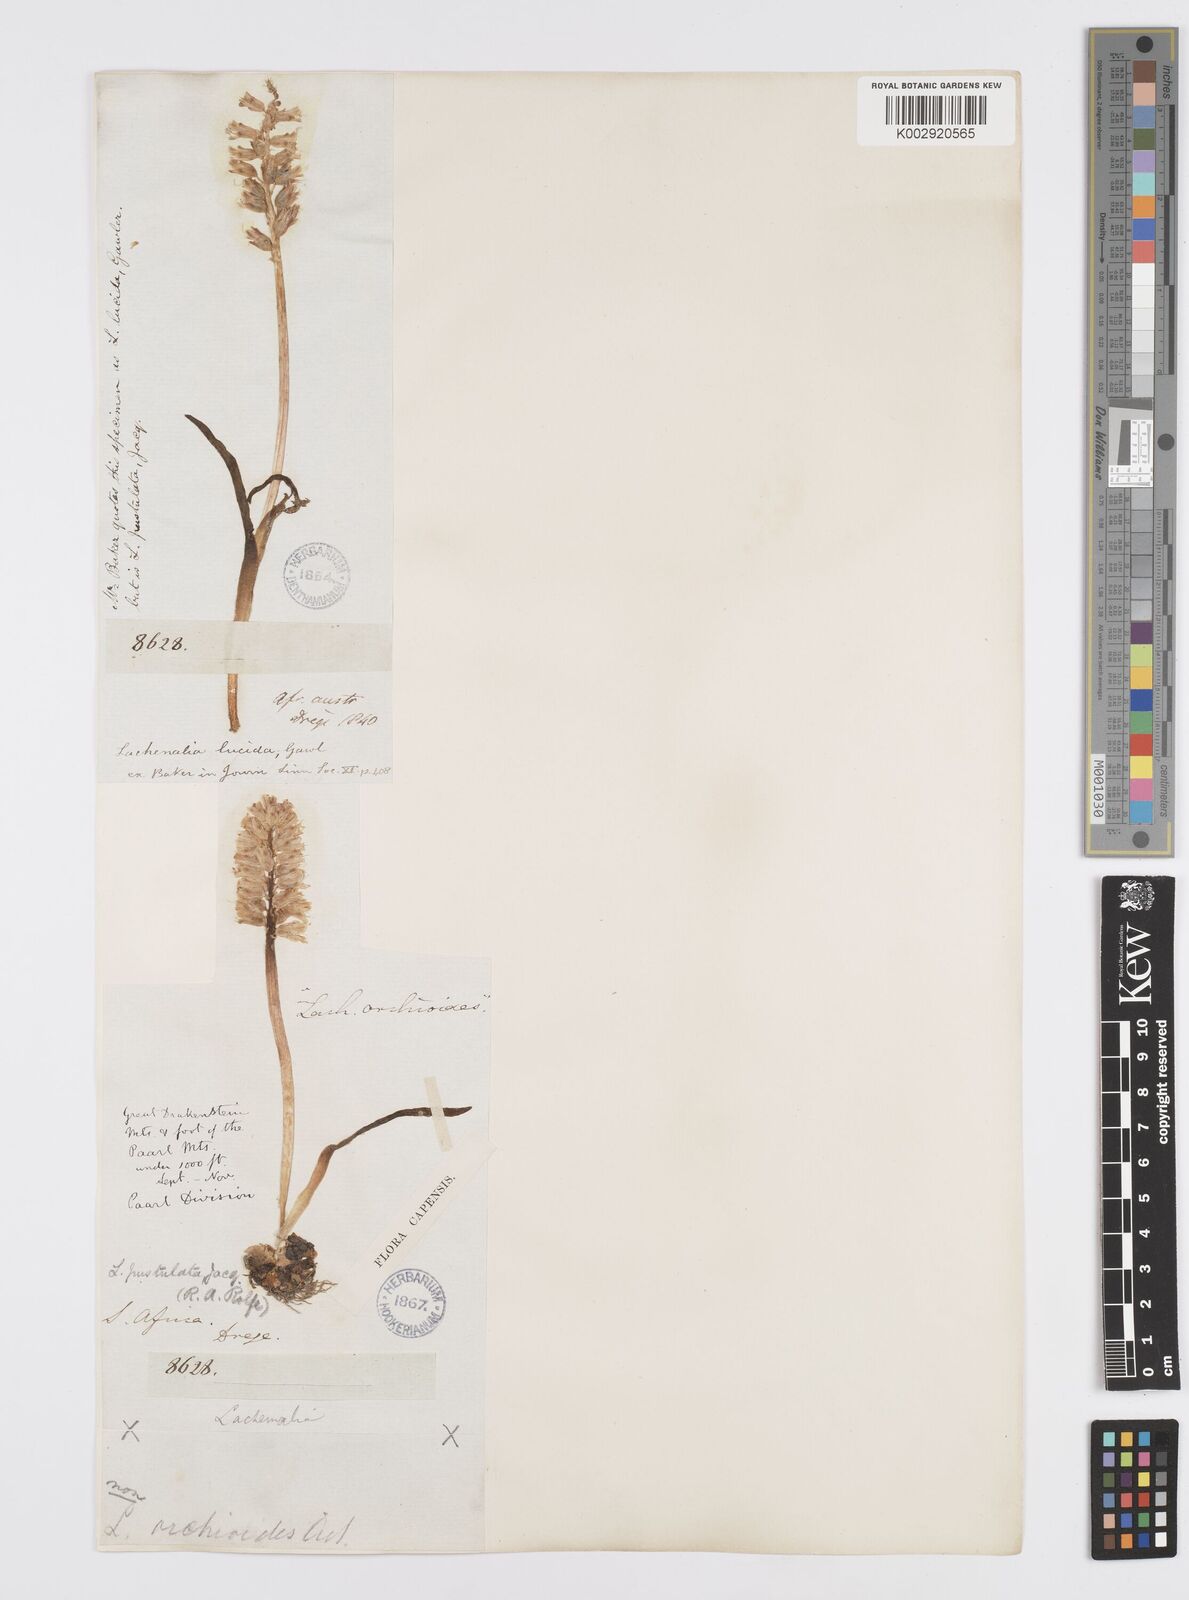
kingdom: Plantae
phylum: Tracheophyta
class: Liliopsida
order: Asparagales
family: Asparagaceae
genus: Lachenalia
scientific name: Lachenalia pallida
